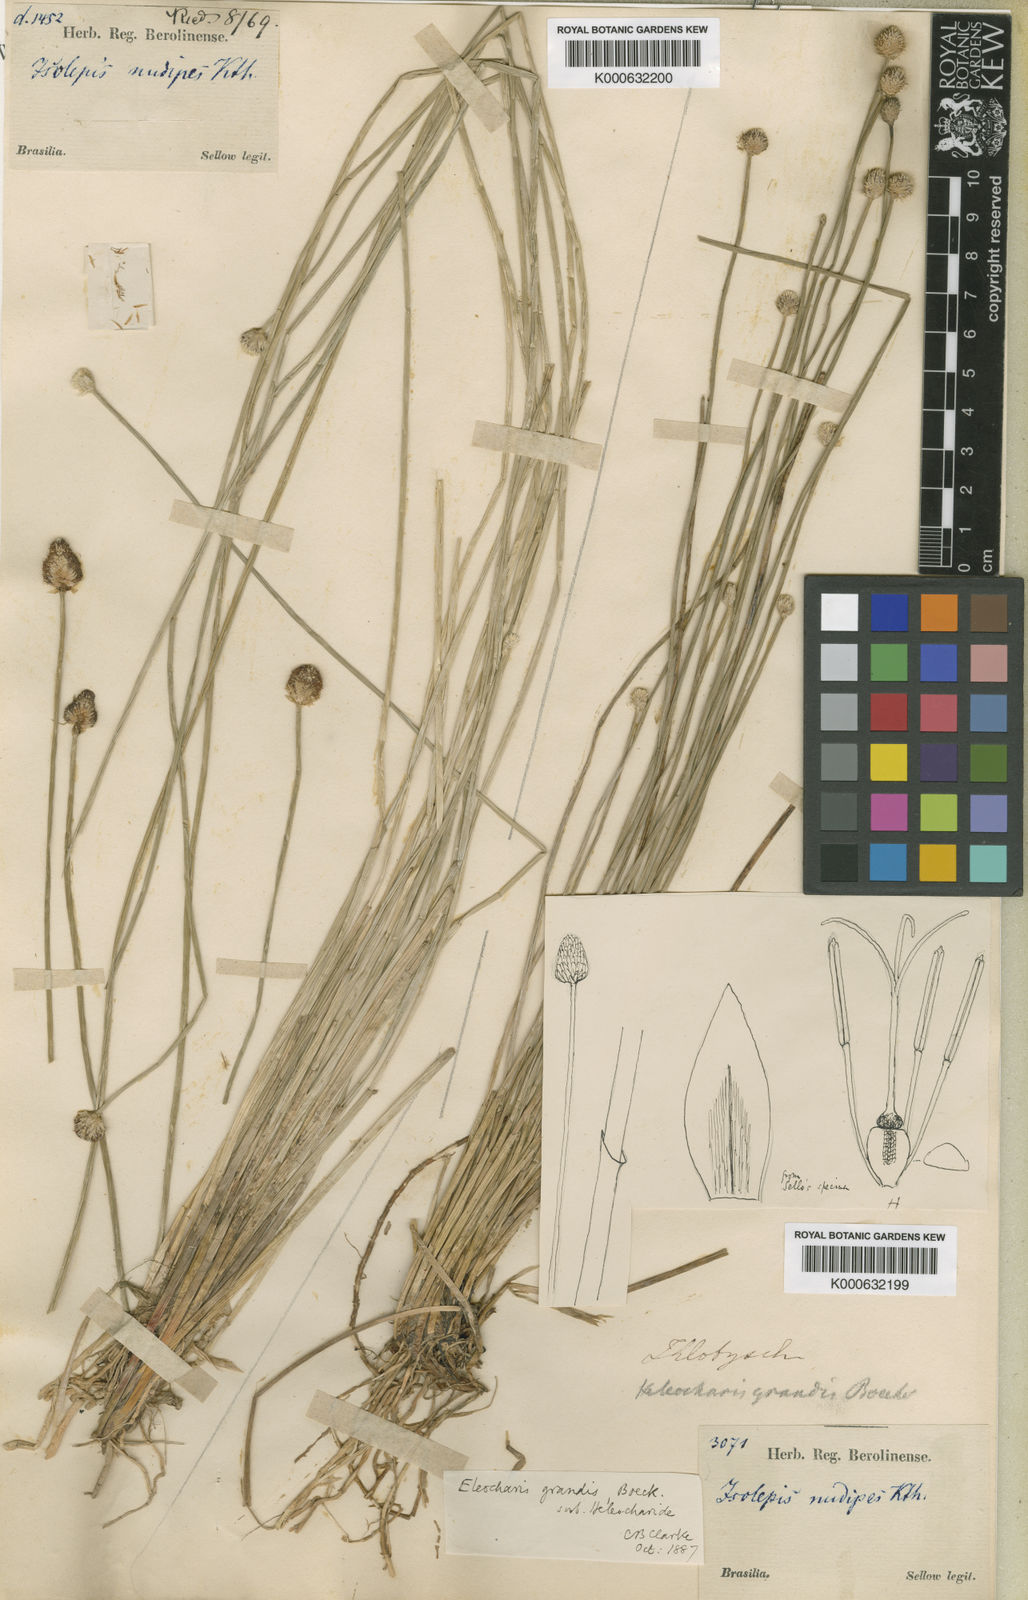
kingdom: Plantae
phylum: Tracheophyta
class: Liliopsida
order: Poales
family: Cyperaceae
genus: Eleocharis
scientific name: Eleocharis nudipes
